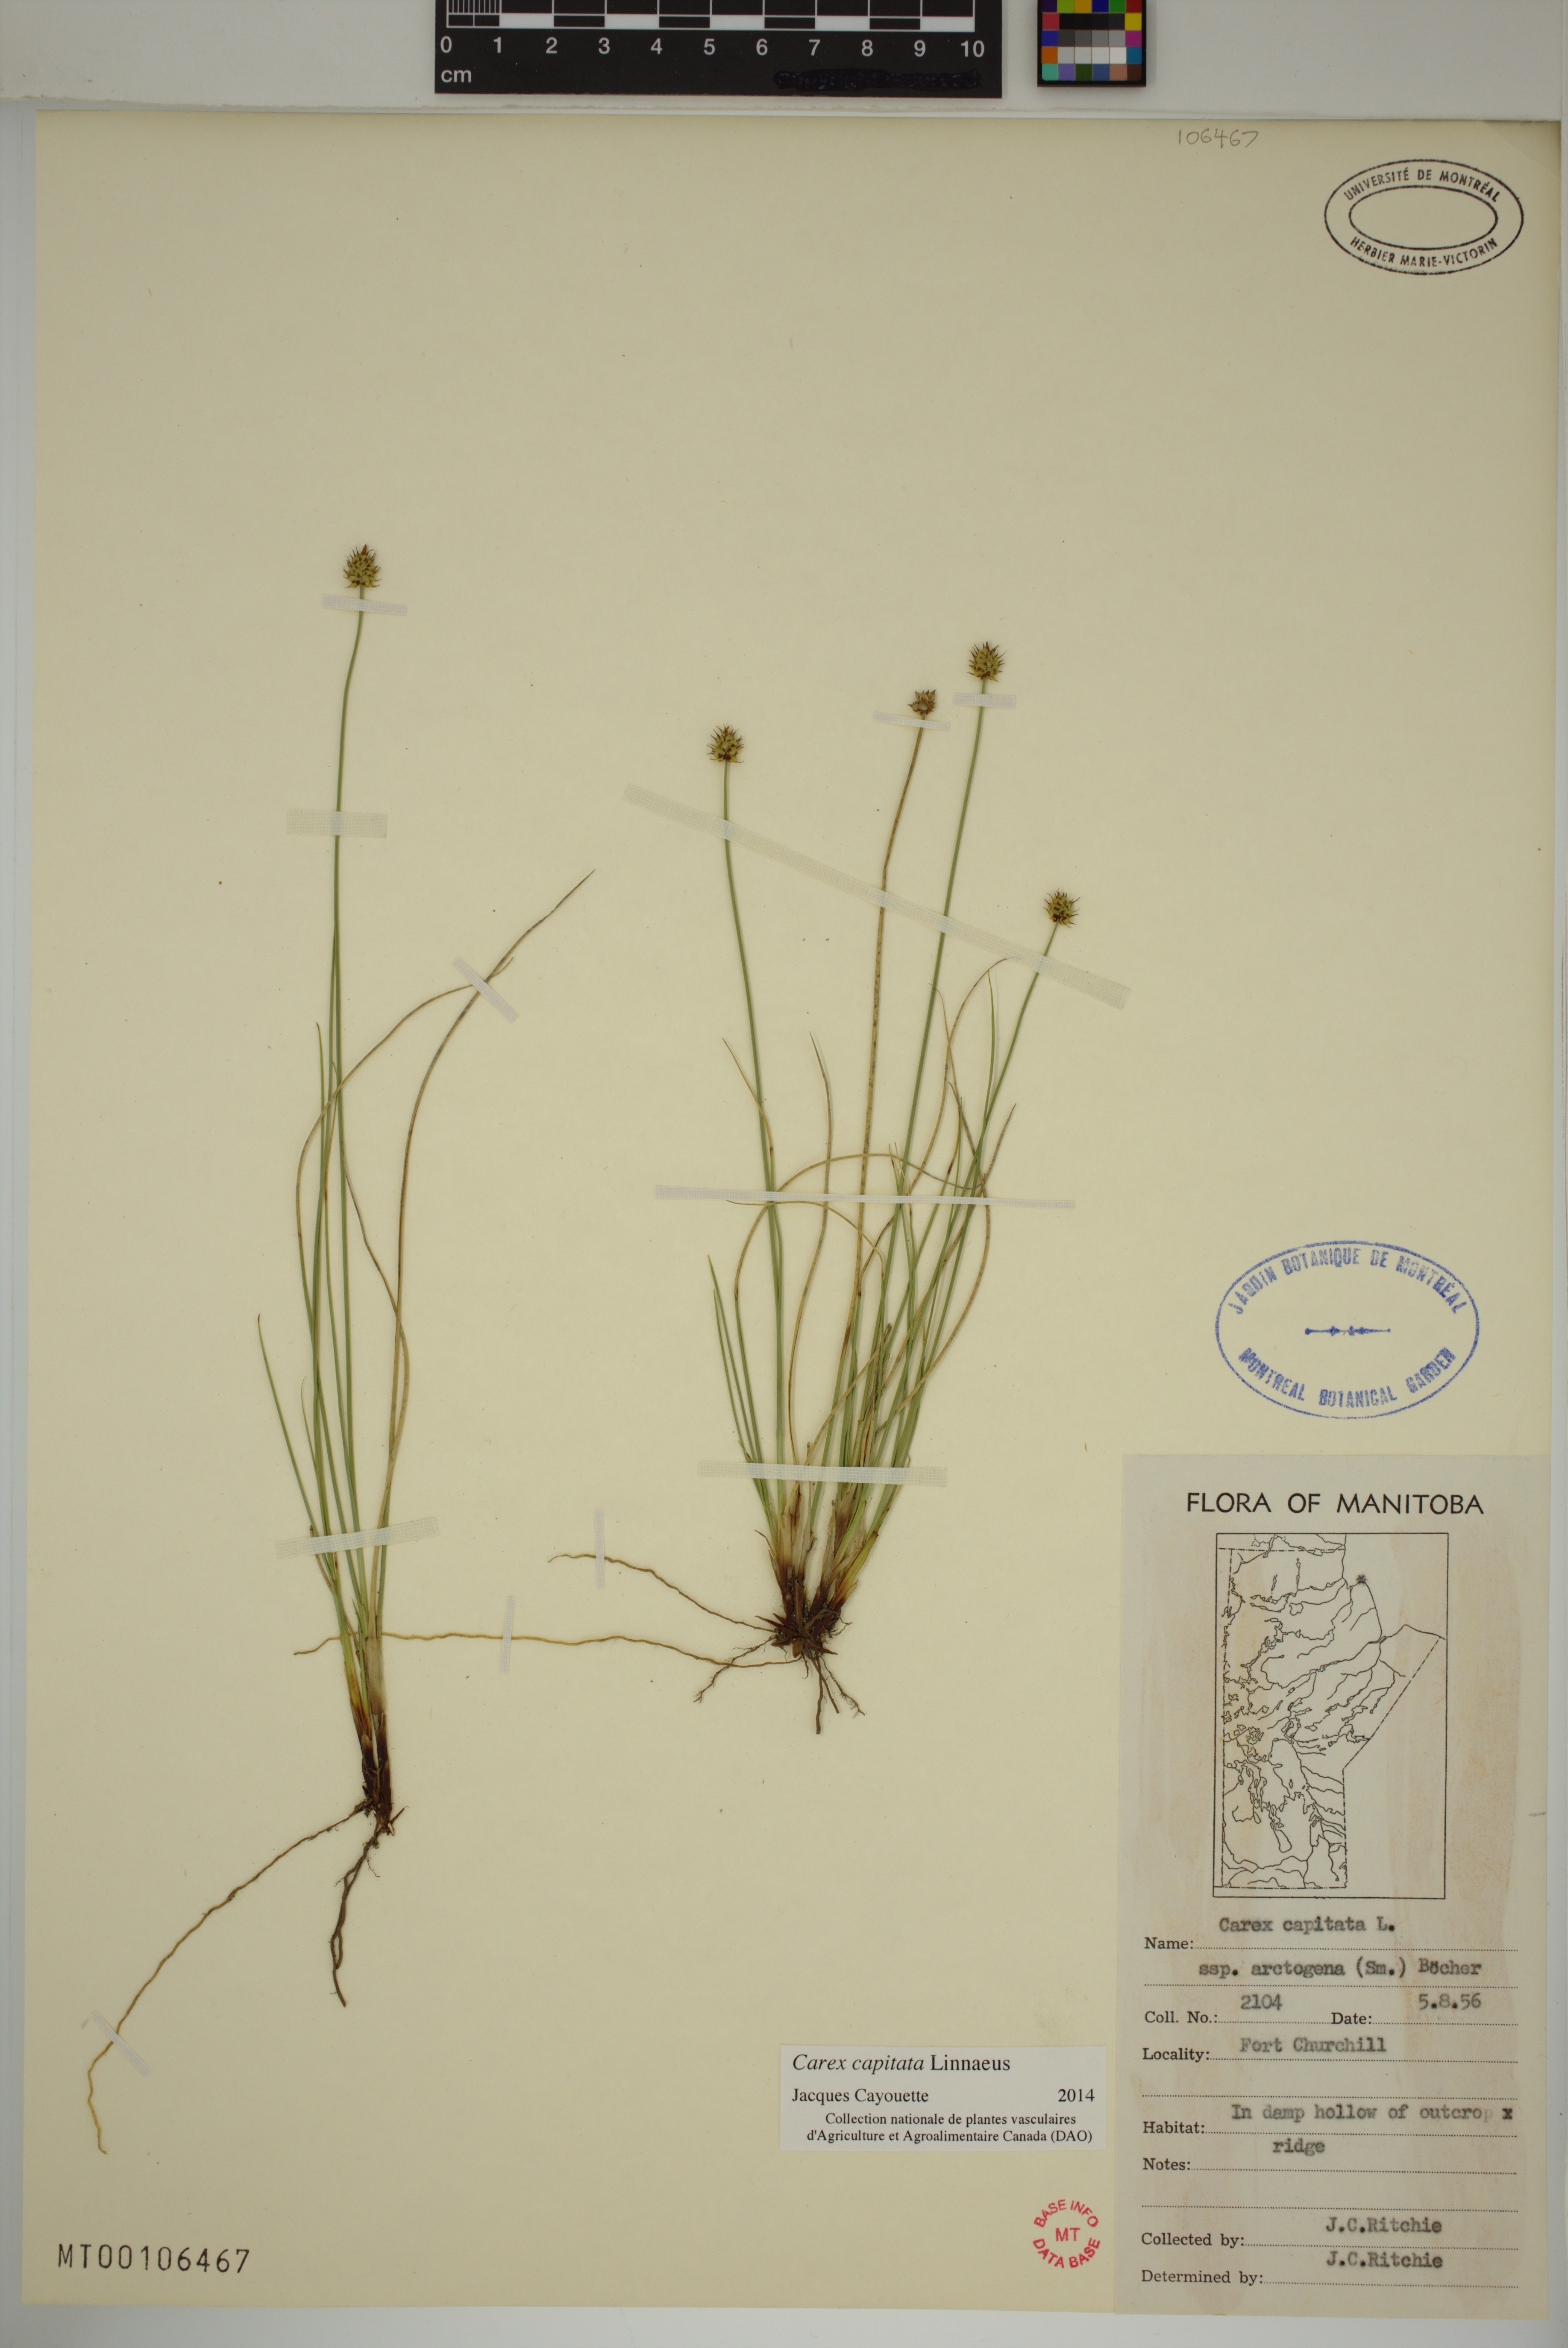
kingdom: Plantae
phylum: Tracheophyta
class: Liliopsida
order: Poales
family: Cyperaceae
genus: Carex
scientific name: Carex capitata
